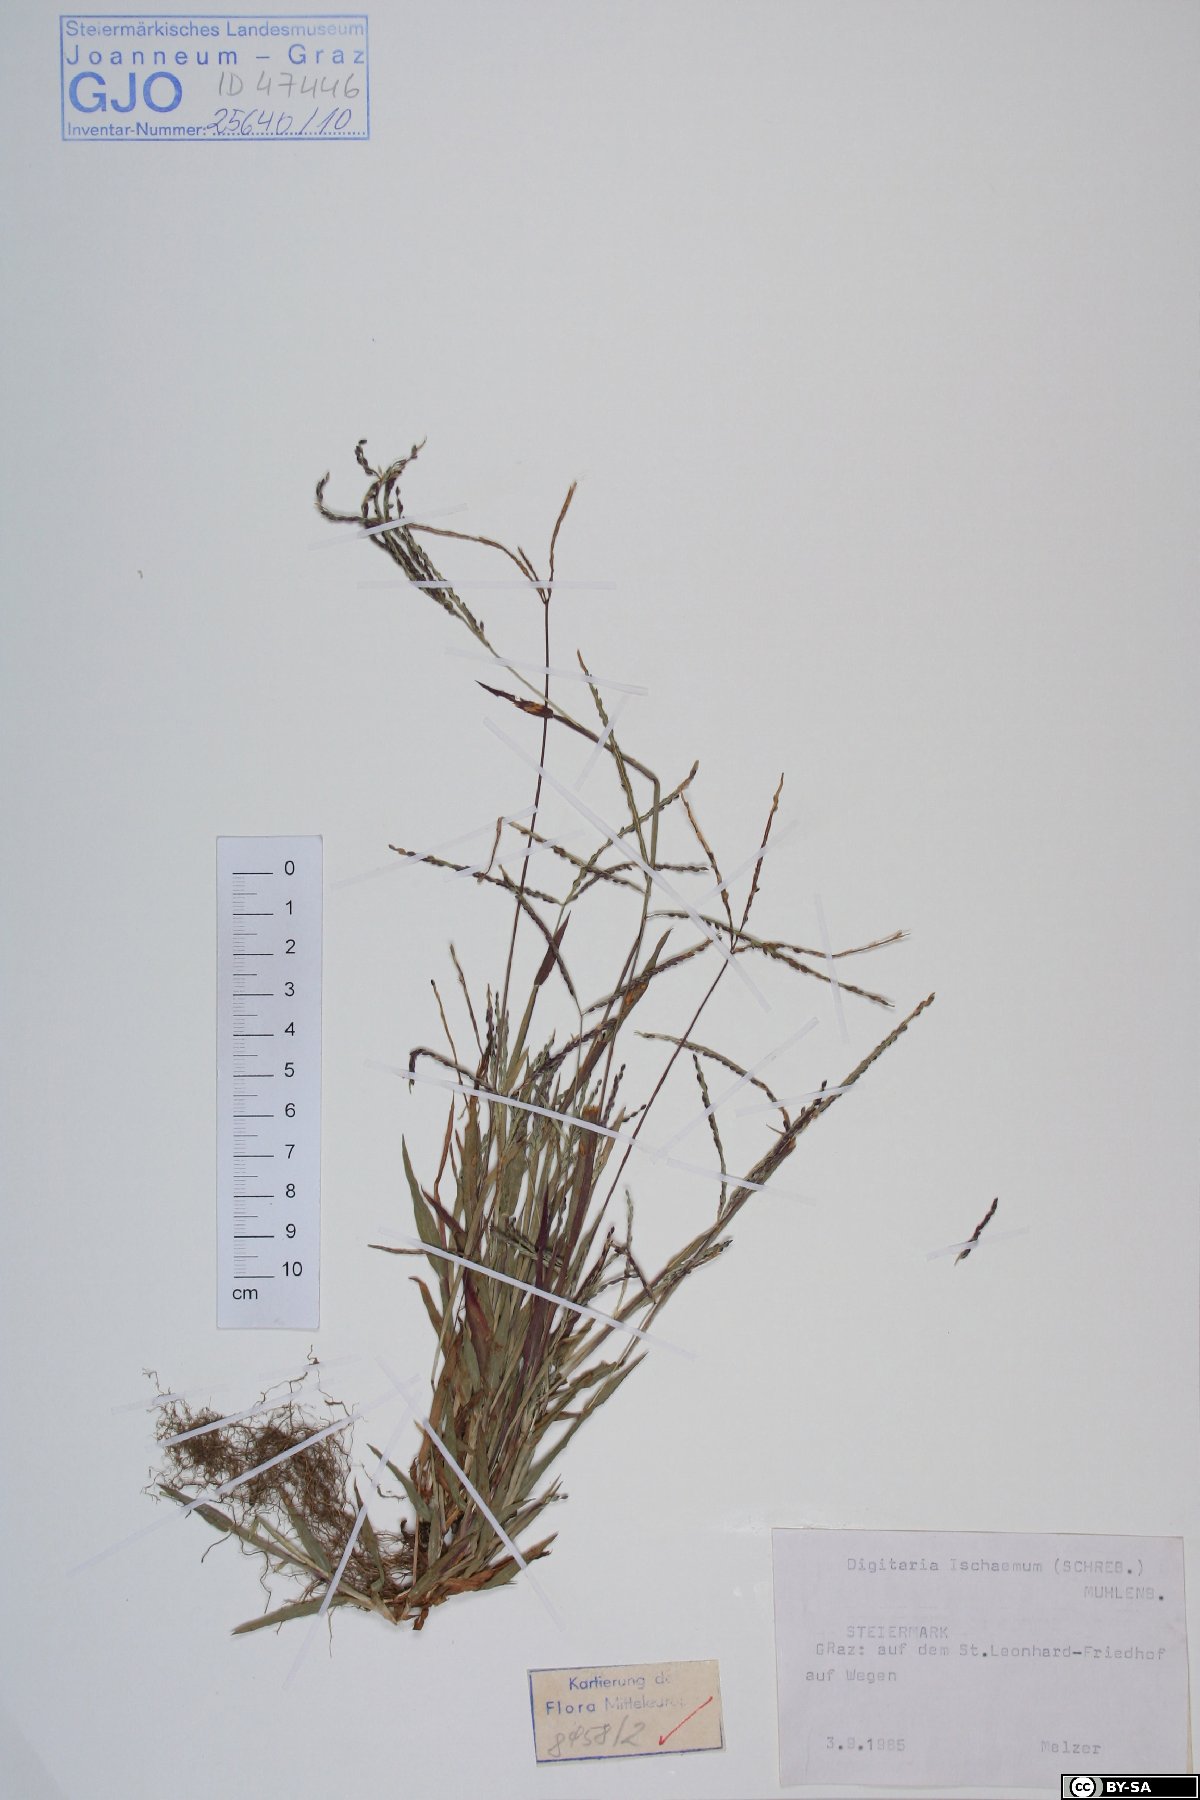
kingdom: Plantae
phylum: Tracheophyta
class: Liliopsida
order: Poales
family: Poaceae
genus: Digitaria
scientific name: Digitaria ischaemum
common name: Smooth crabgrass
